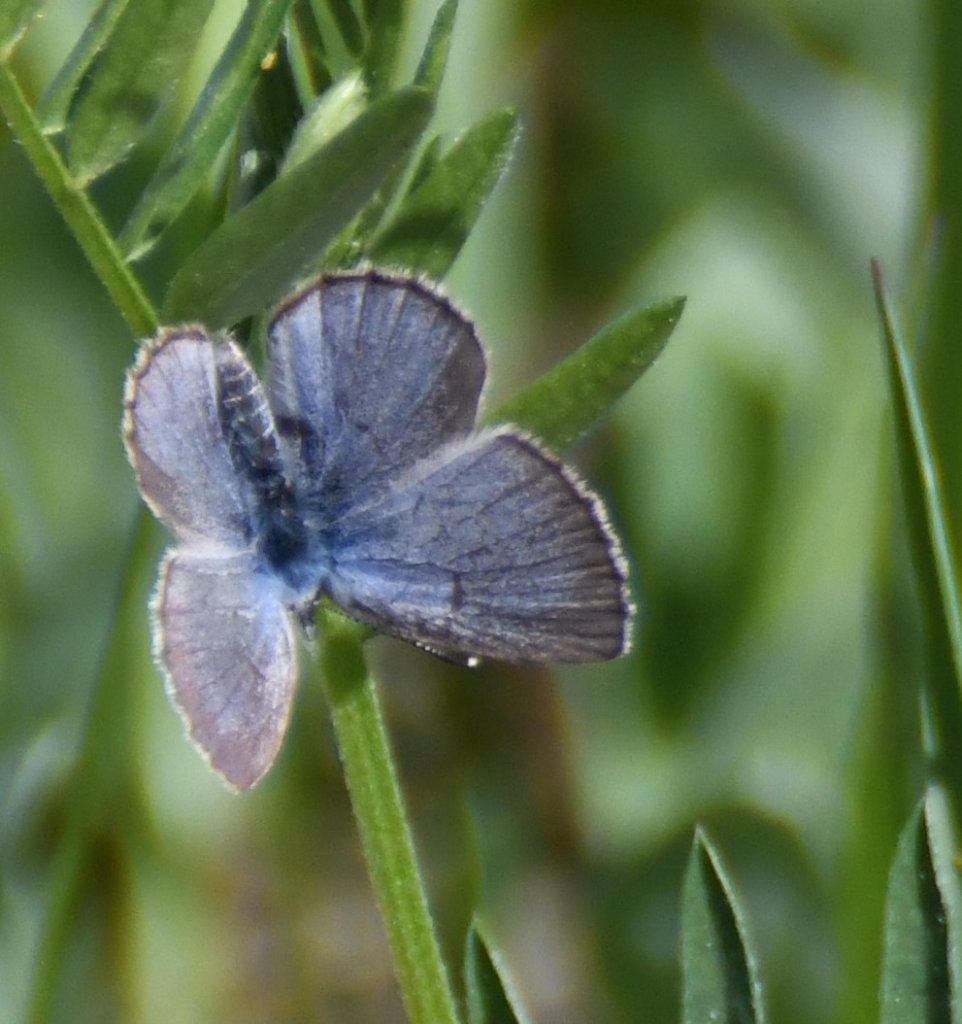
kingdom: Animalia
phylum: Arthropoda
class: Insecta
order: Lepidoptera
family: Lycaenidae
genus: Glaucopsyche
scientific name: Glaucopsyche lygdamus
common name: Silvery Blue
